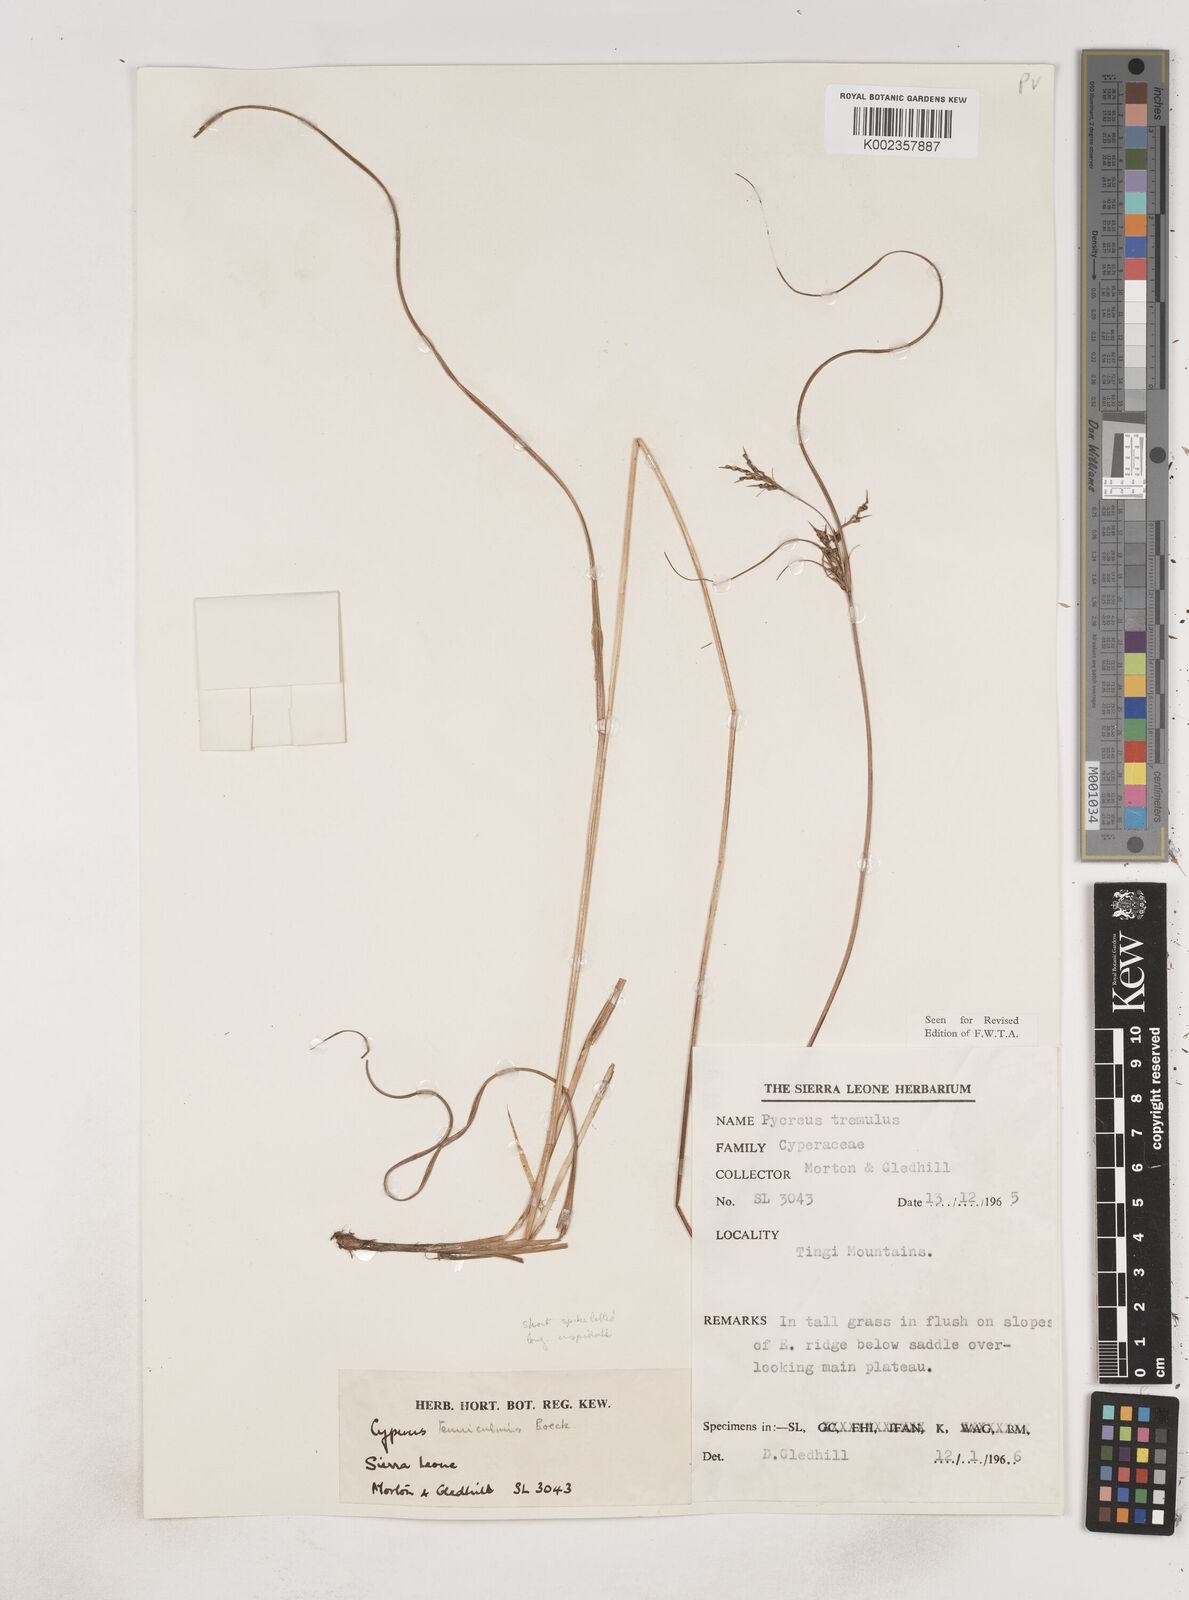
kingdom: Plantae
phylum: Tracheophyta
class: Liliopsida
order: Poales
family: Cyperaceae
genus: Cyperus
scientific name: Cyperus
